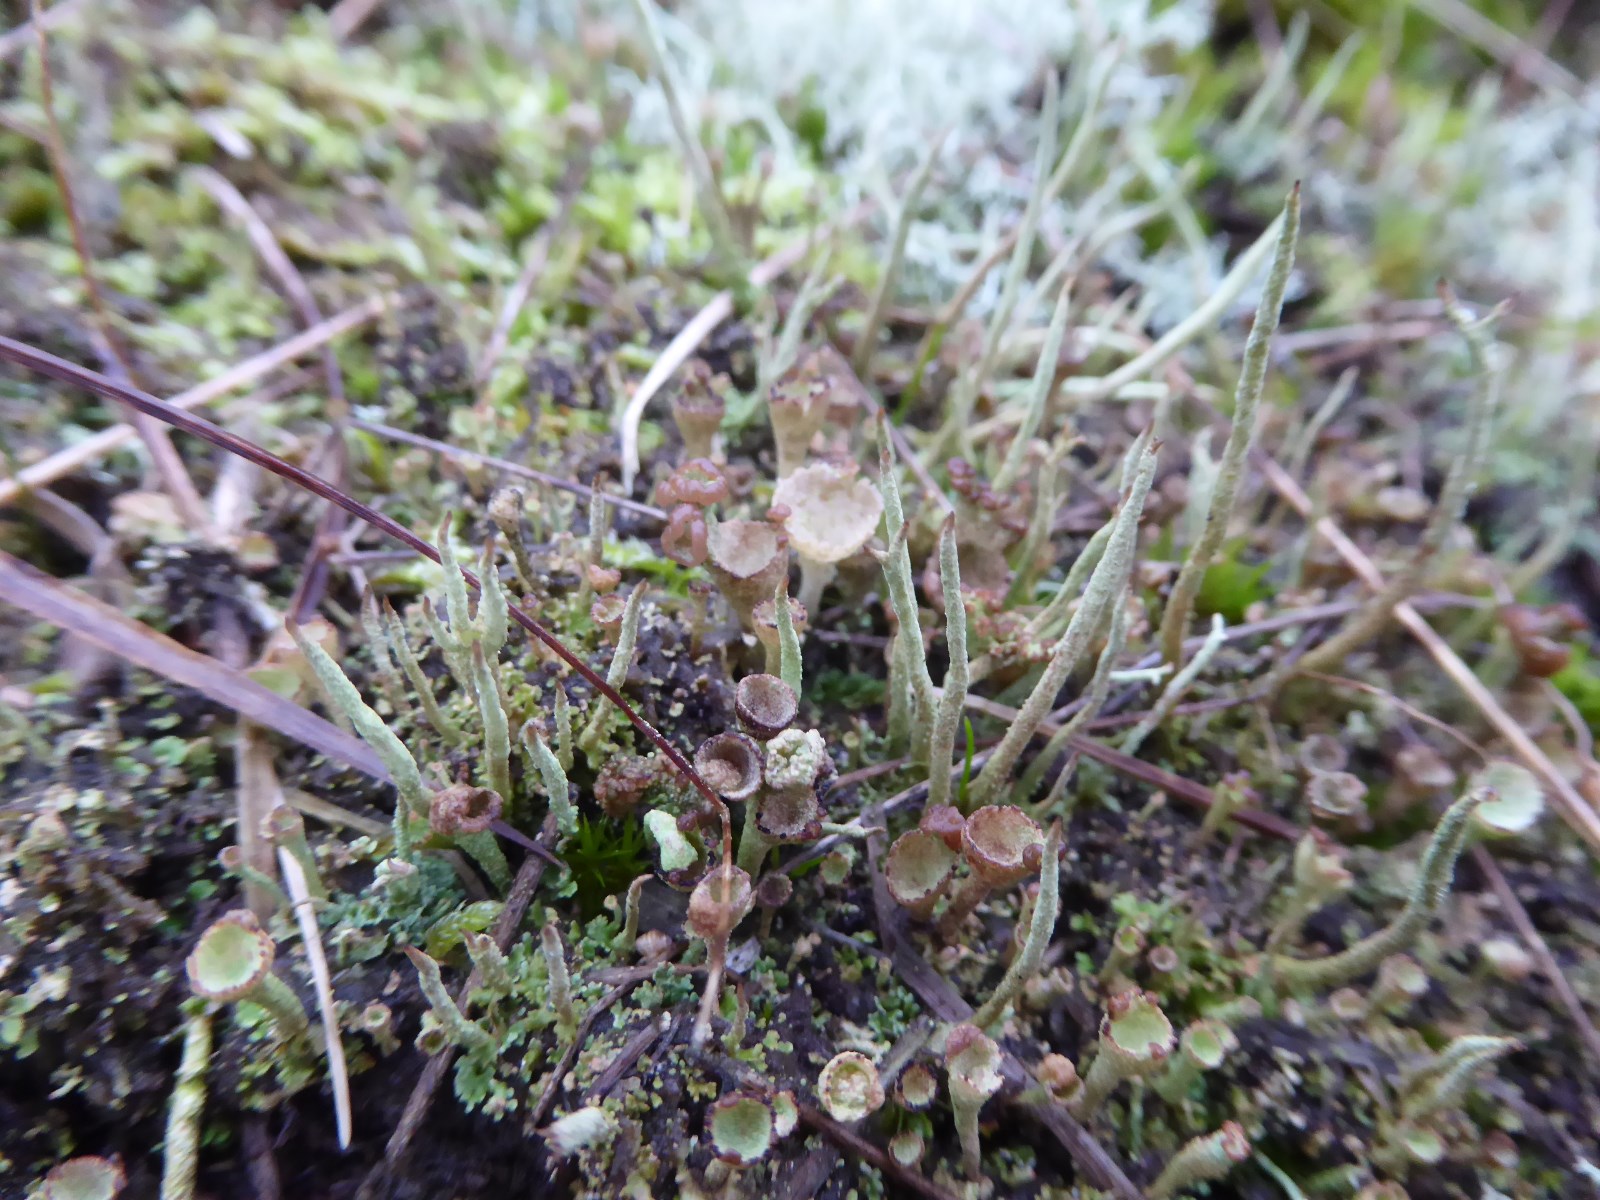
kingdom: Fungi
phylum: Ascomycota
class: Lecanoromycetes
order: Lecanorales
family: Cladoniaceae
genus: Cladonia
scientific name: Cladonia
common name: brungrøn bægerlav
